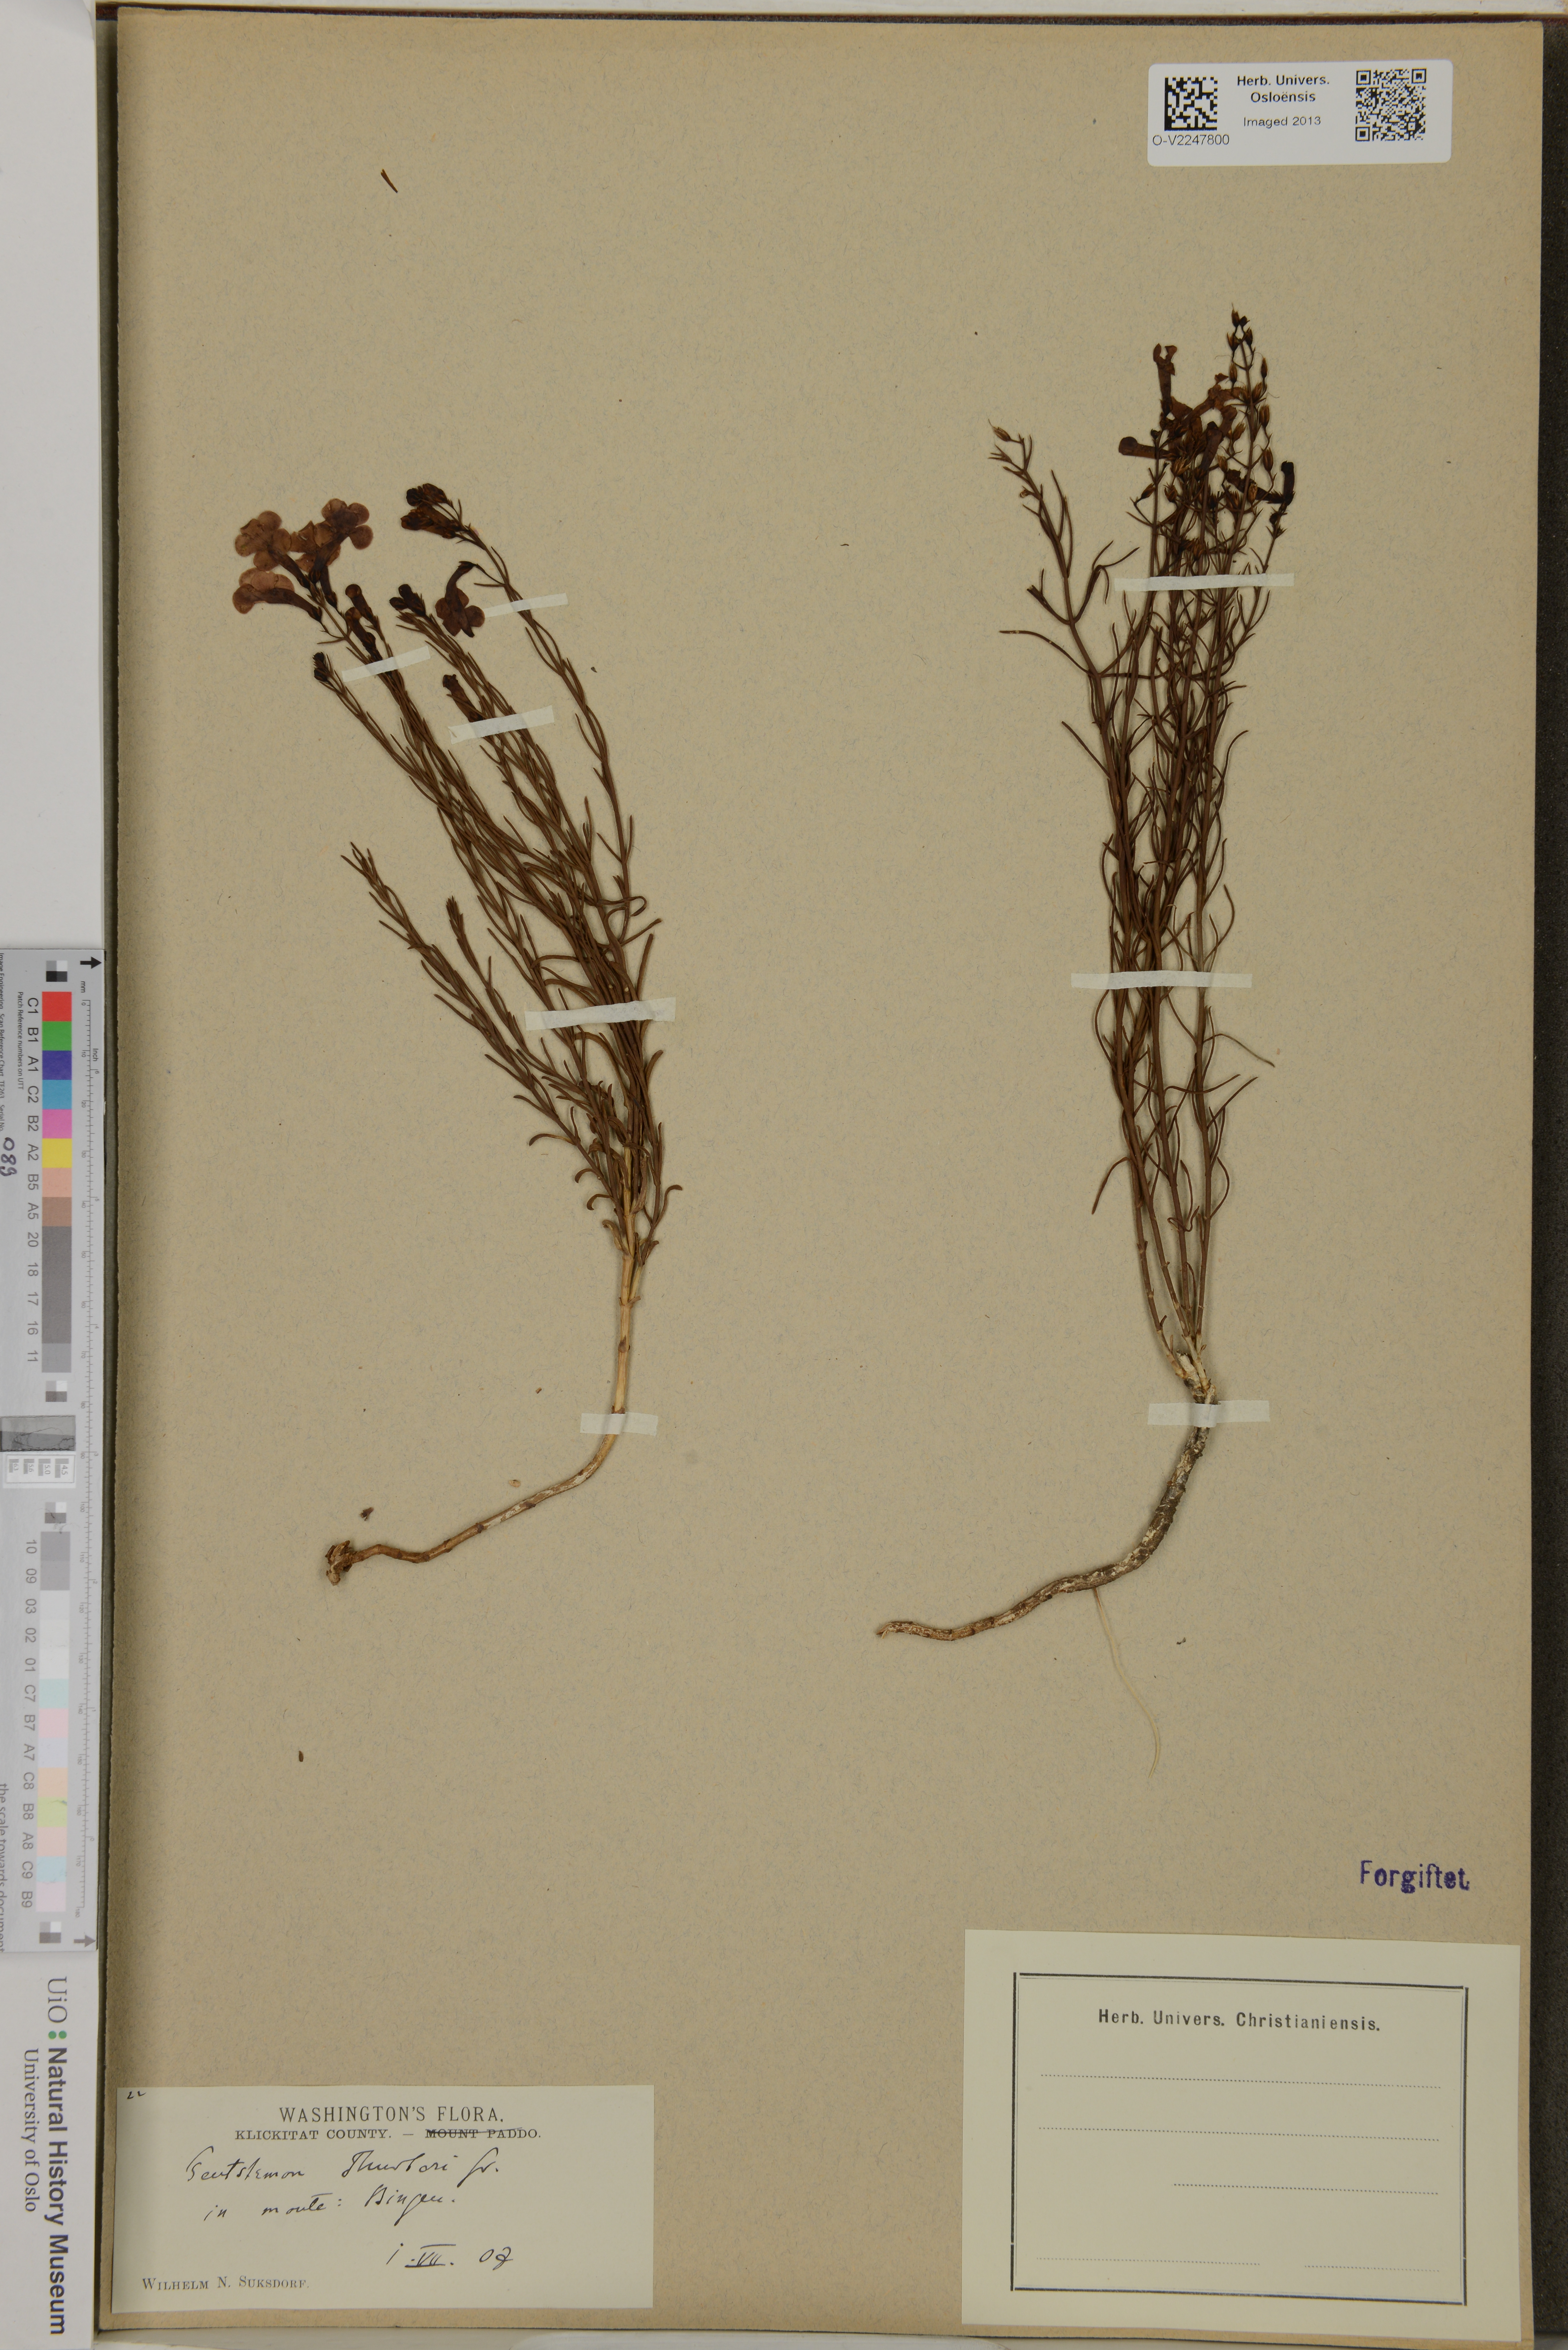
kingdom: Plantae
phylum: Tracheophyta
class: Magnoliopsida
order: Lamiales
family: Plantaginaceae
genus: Penstemon
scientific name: Penstemon thurberi
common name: Thurber's beardtongue
